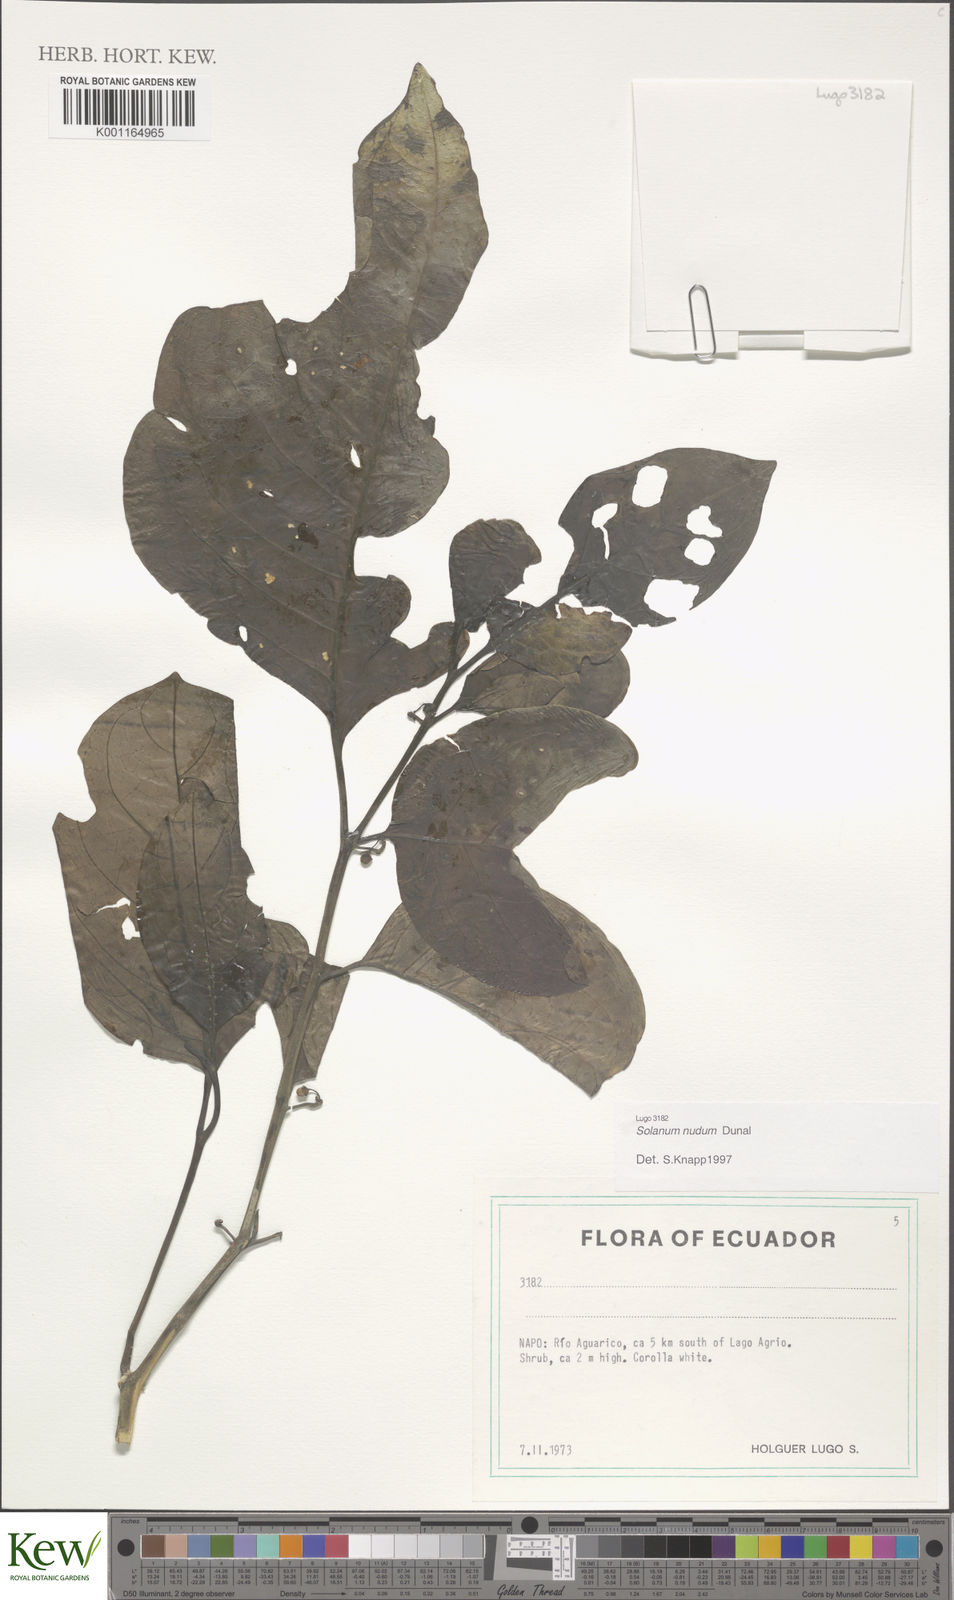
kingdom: Plantae
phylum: Tracheophyta
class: Magnoliopsida
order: Solanales
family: Solanaceae
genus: Solanum
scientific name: Solanum nudum
